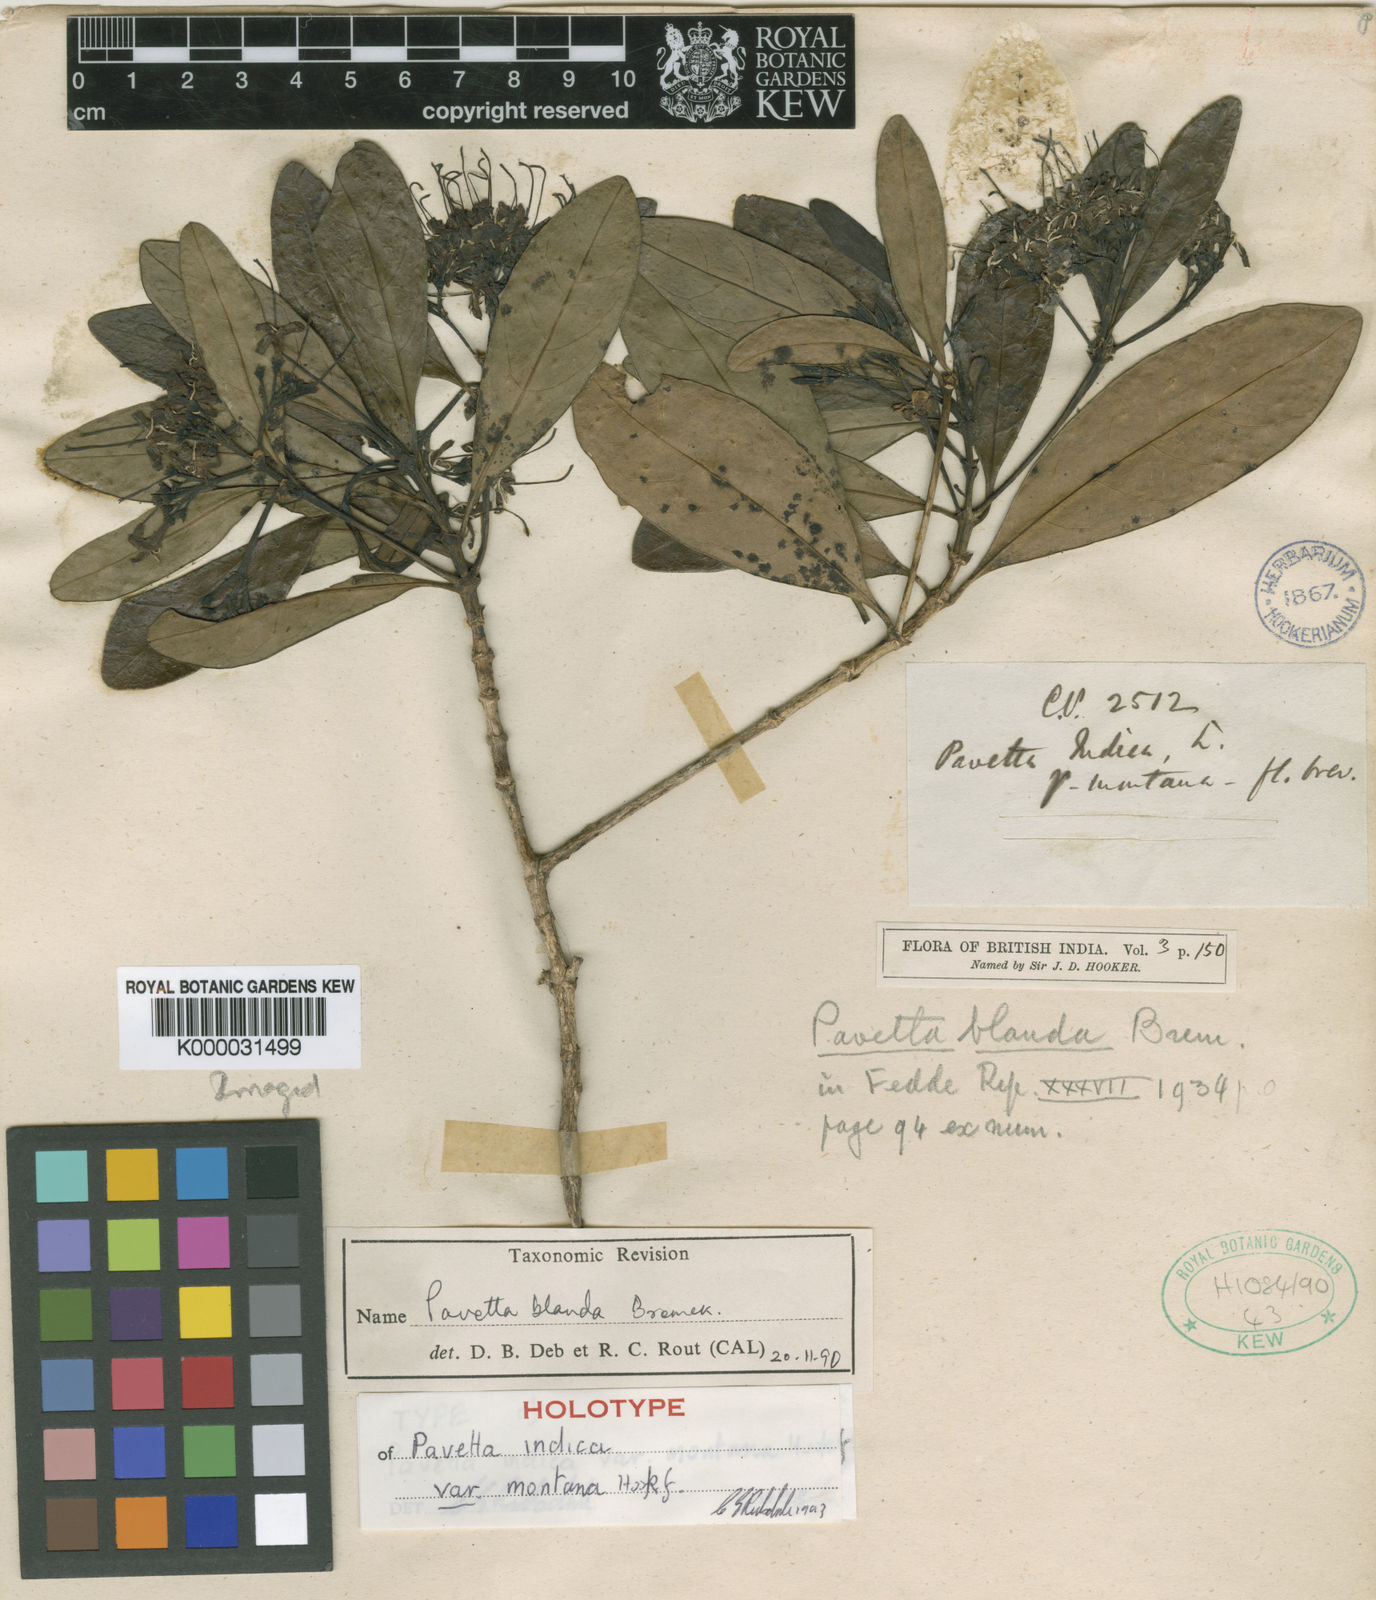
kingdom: Plantae
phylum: Tracheophyta
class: Magnoliopsida
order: Gentianales
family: Rubiaceae
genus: Pavetta
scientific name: Pavetta blanda
